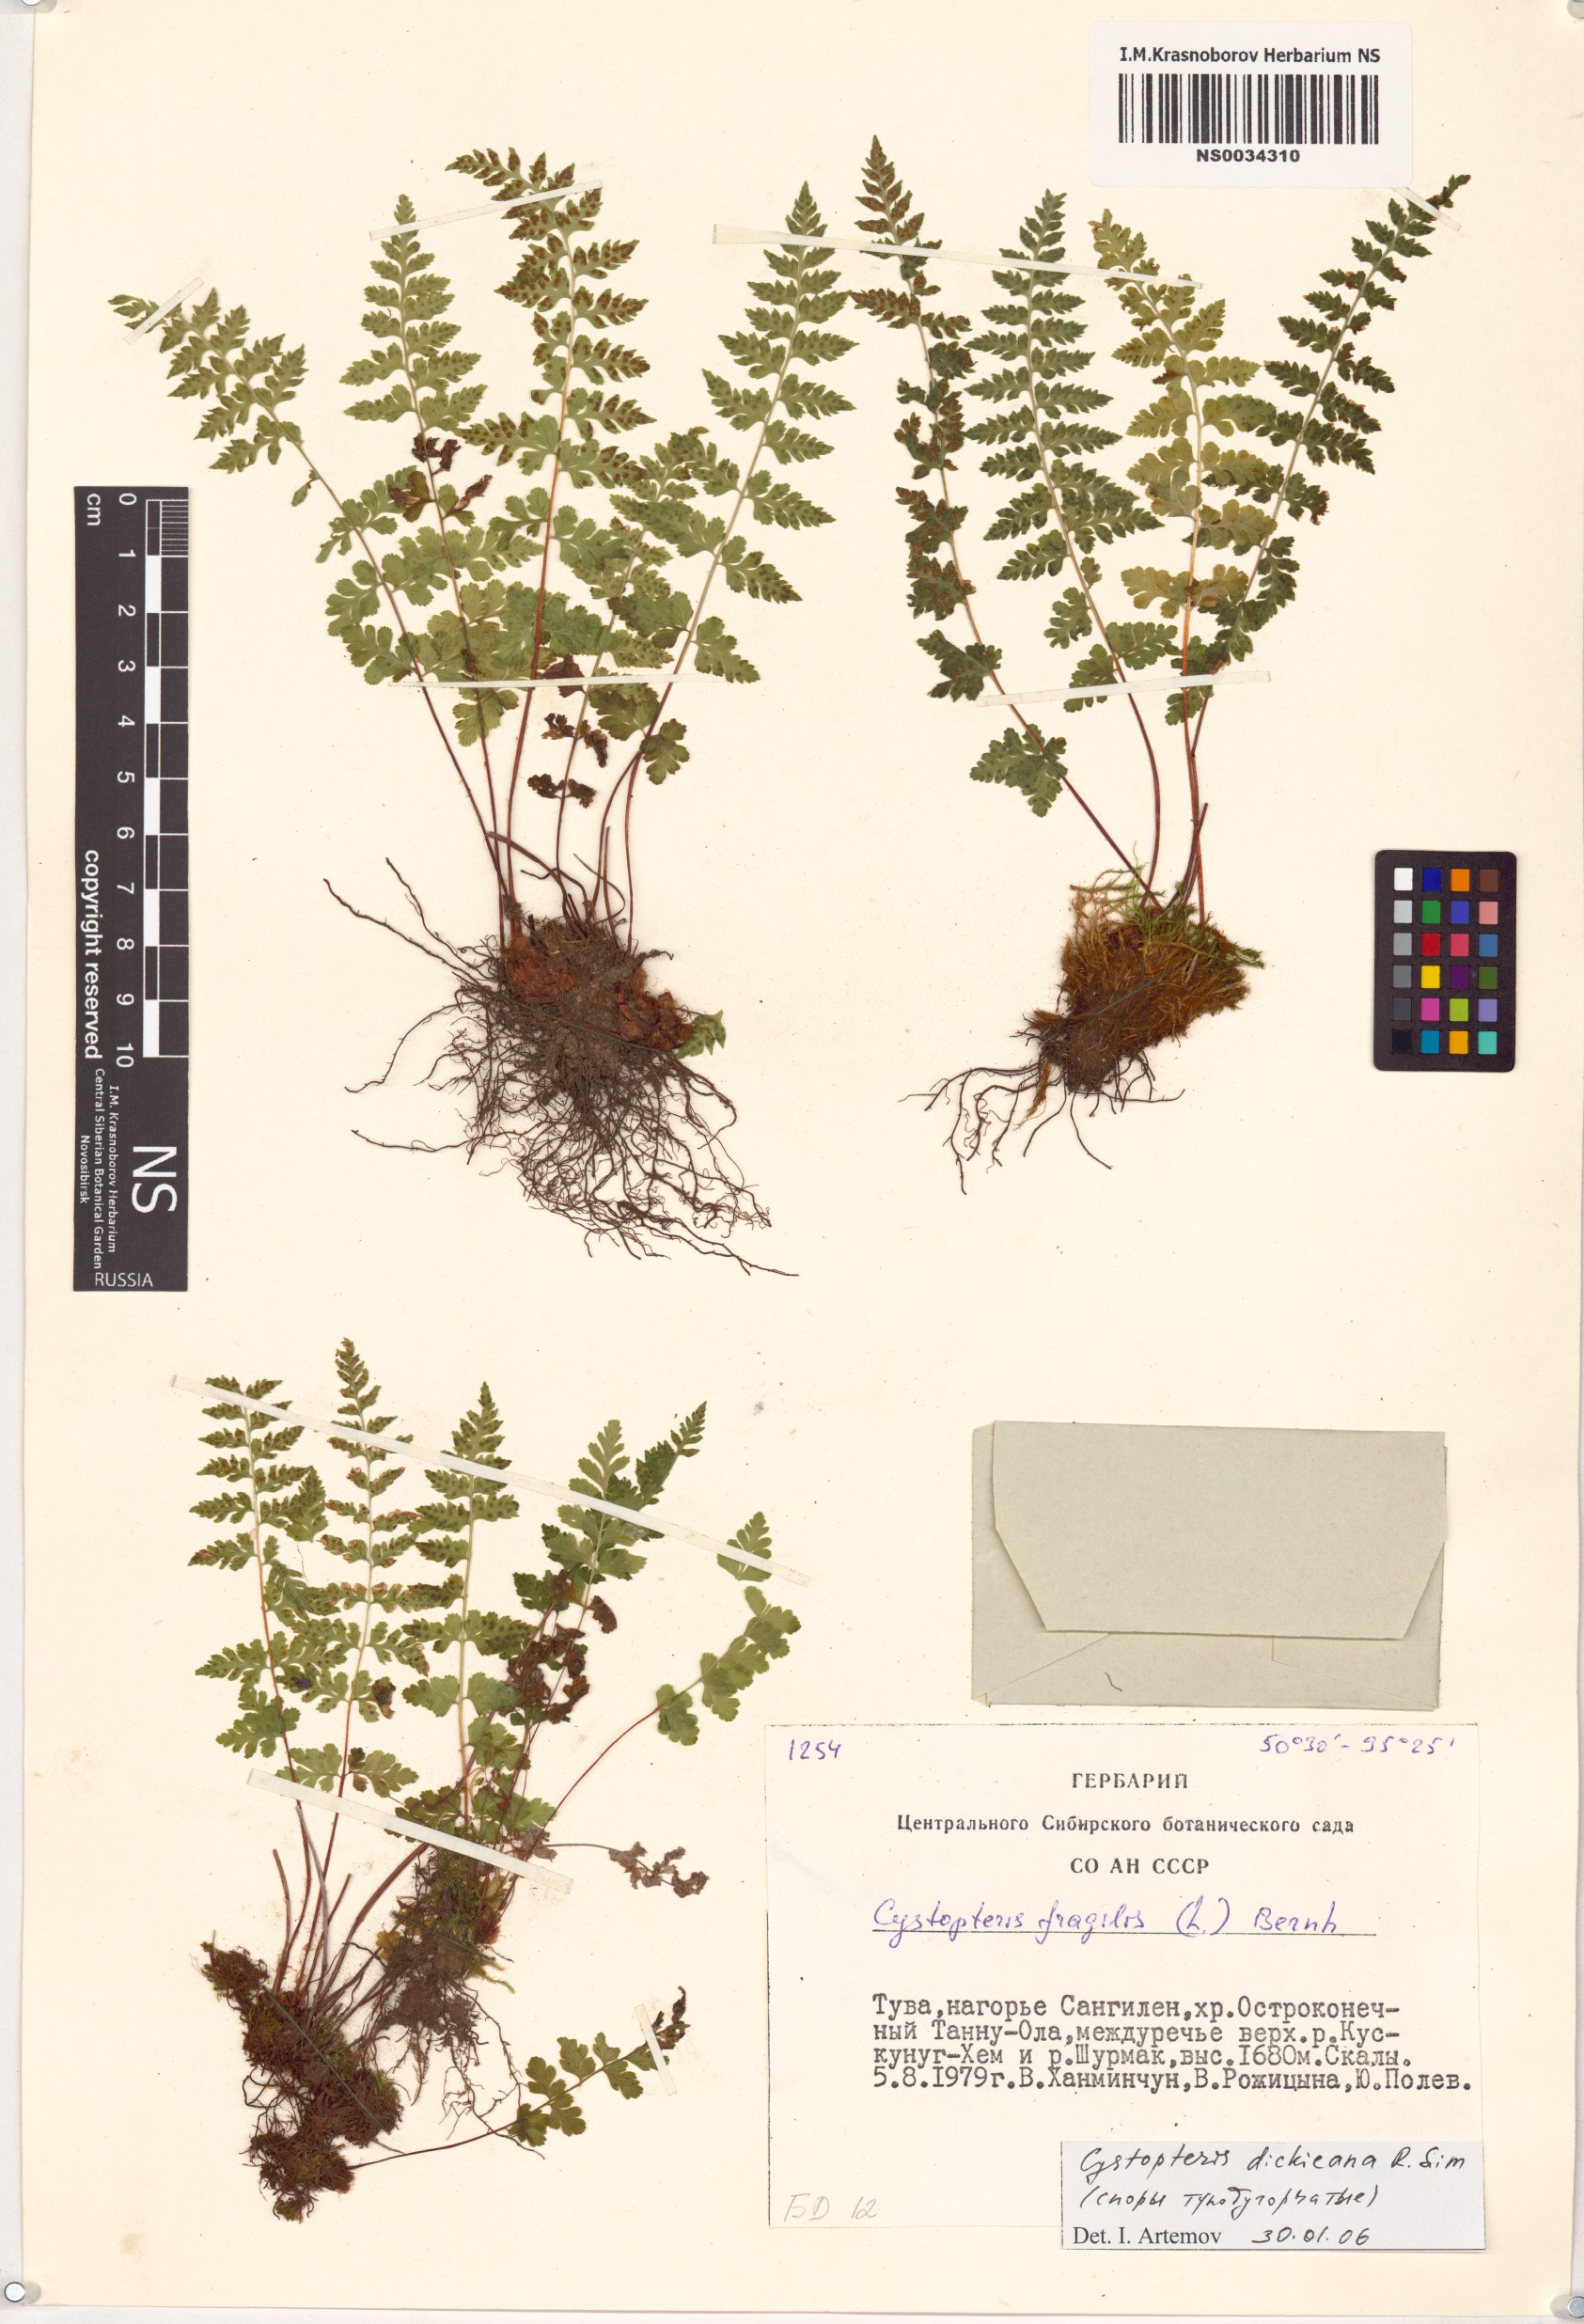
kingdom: Plantae
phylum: Tracheophyta
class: Polypodiopsida
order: Polypodiales
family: Cystopteridaceae
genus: Cystopteris
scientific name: Cystopteris dickieana
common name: Dickie's bladder-fern
